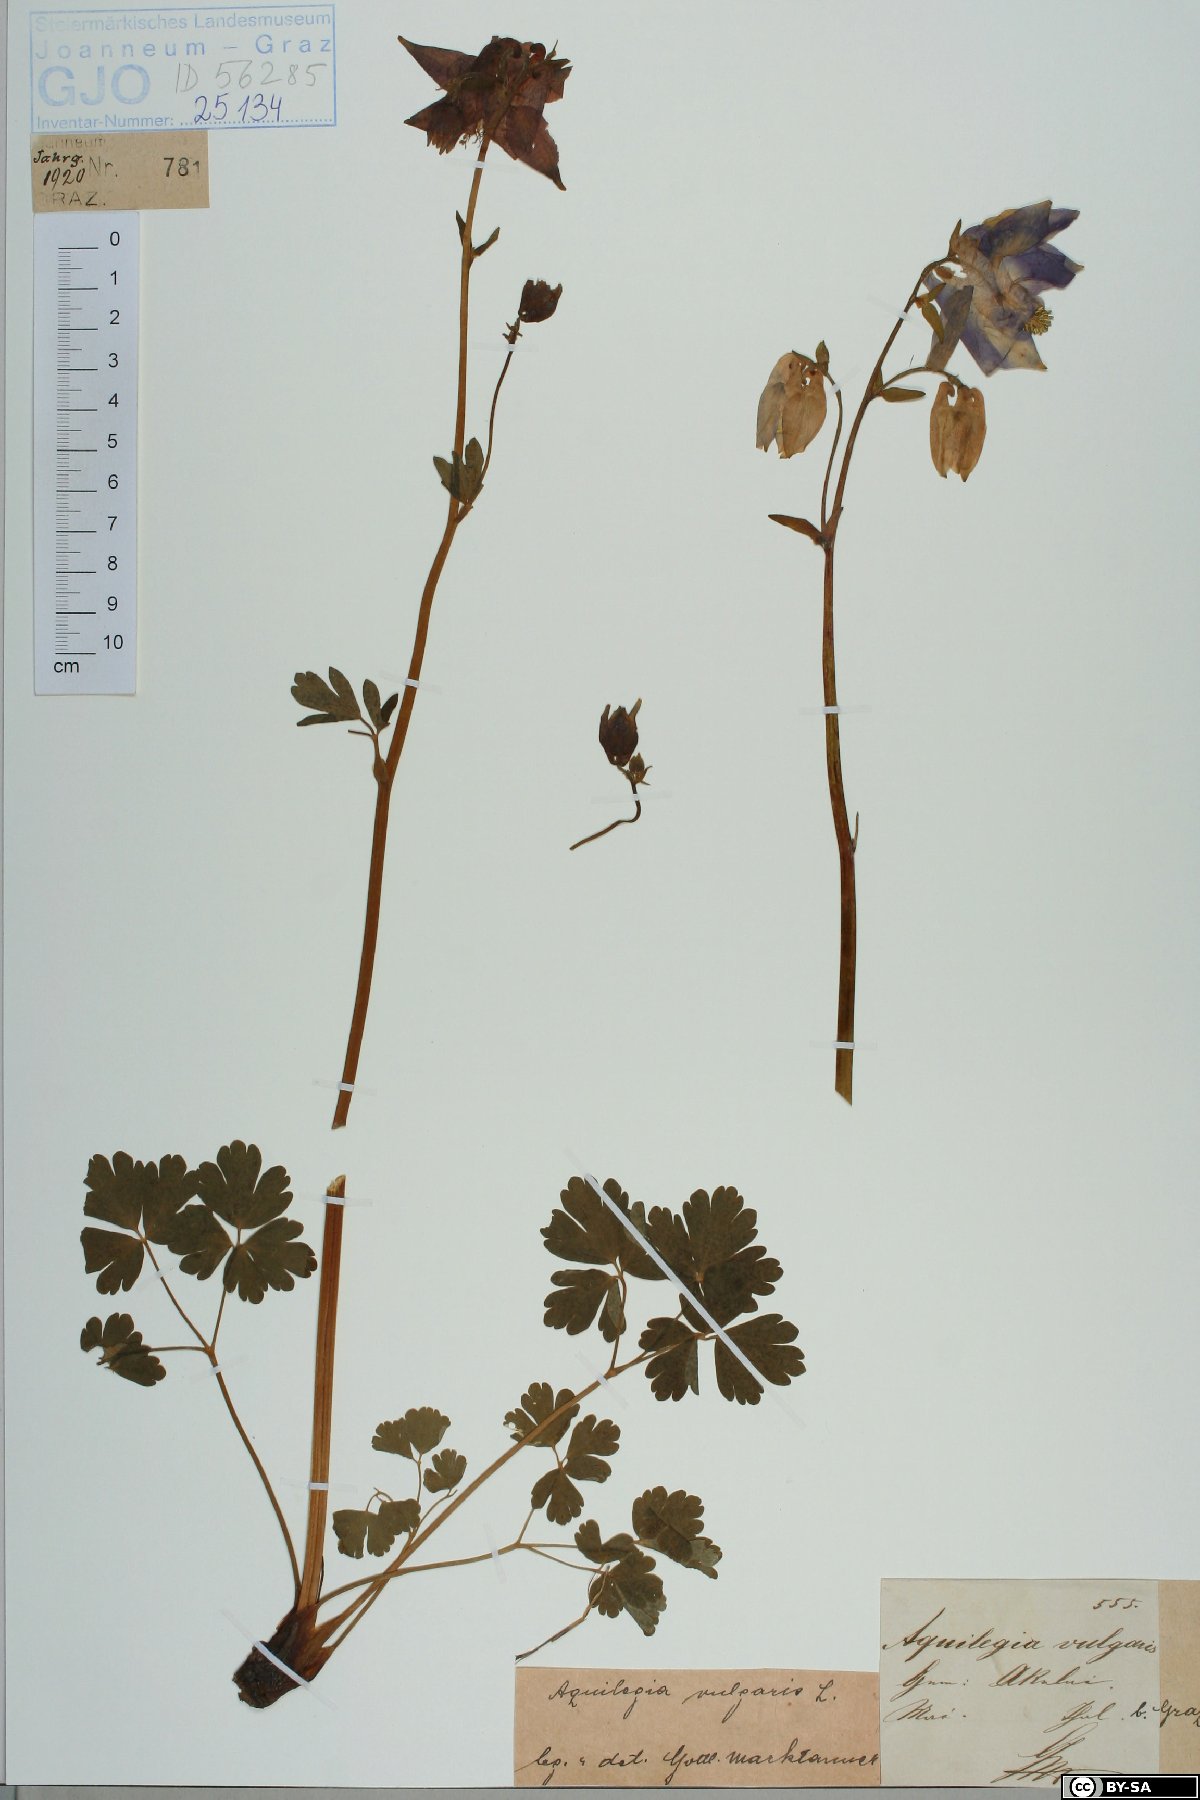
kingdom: Plantae
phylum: Tracheophyta
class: Magnoliopsida
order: Ranunculales
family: Ranunculaceae
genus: Aquilegia
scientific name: Aquilegia vulgaris
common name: Columbine
